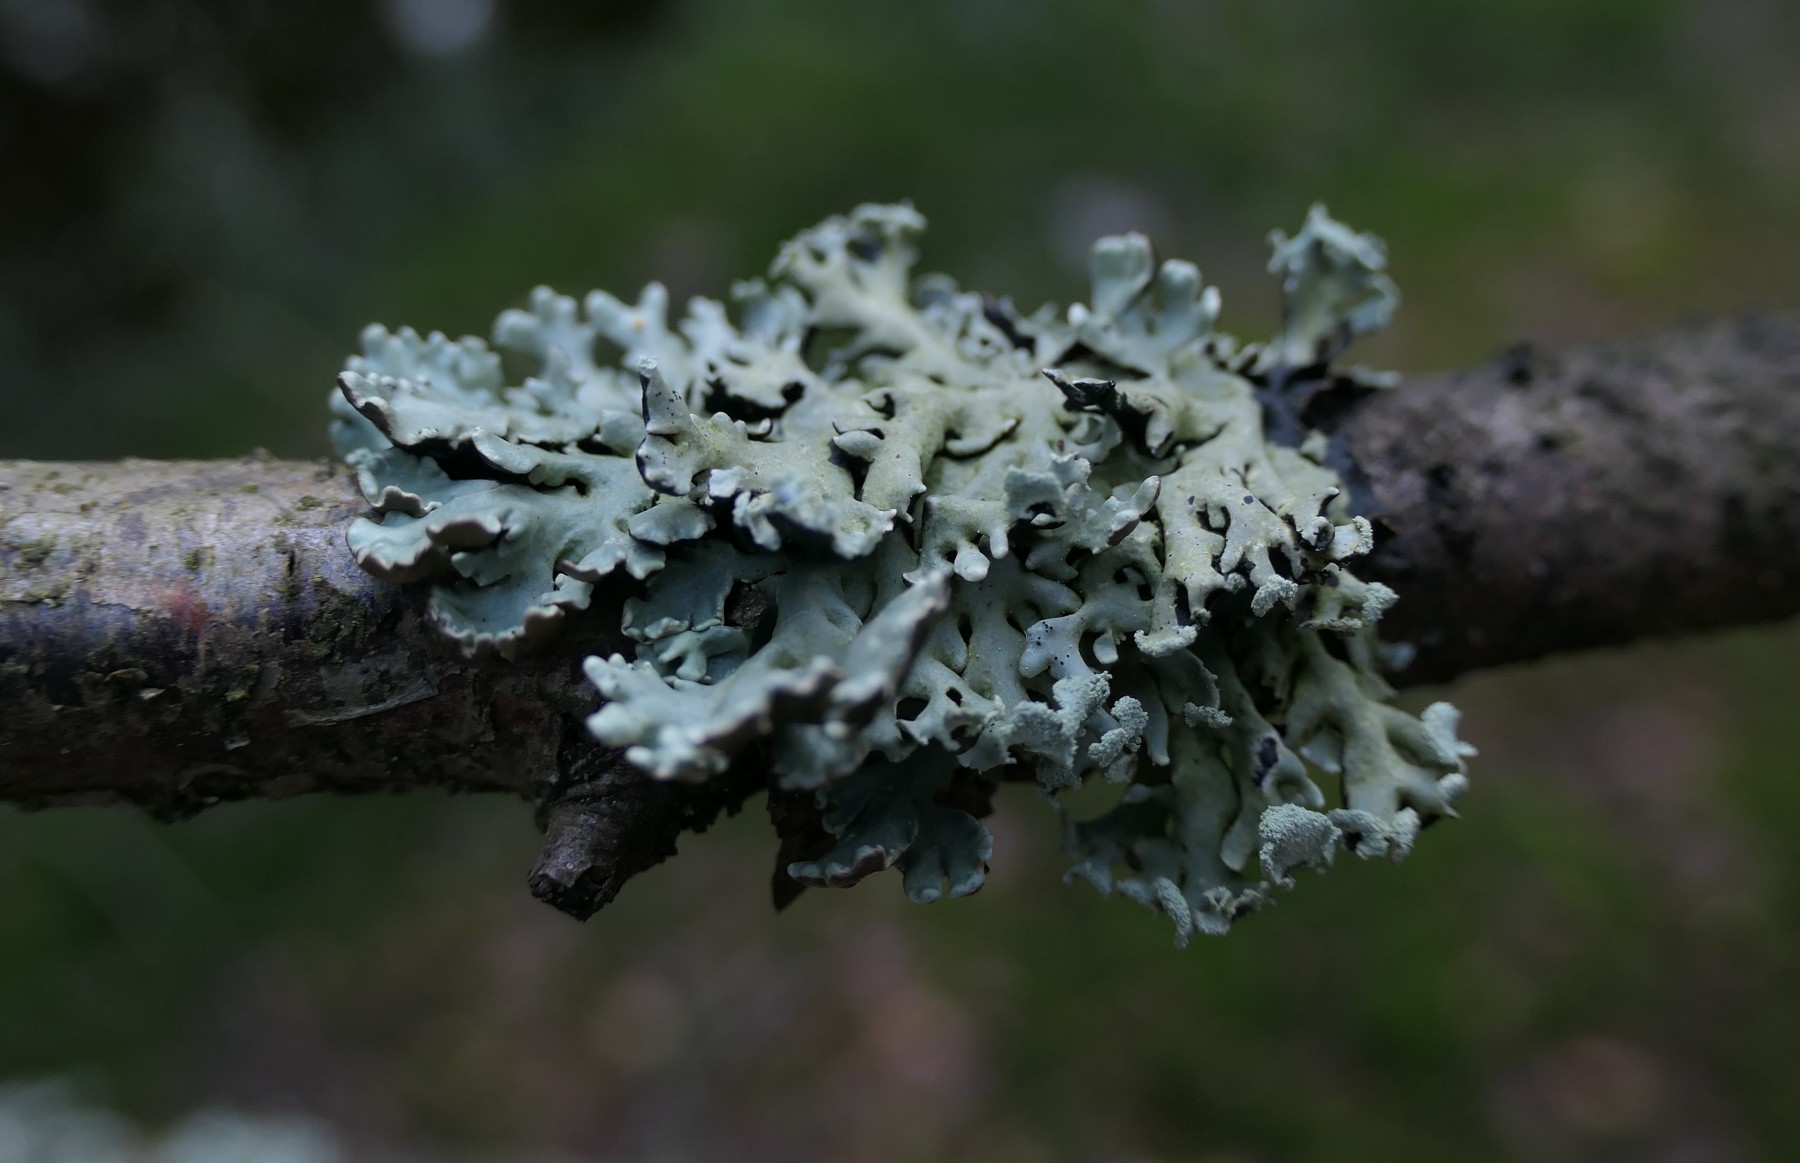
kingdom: Fungi
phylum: Ascomycota
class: Lecanoromycetes
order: Lecanorales
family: Parmeliaceae
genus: Hypogymnia
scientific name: Hypogymnia physodes
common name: almindelig kvistlav
